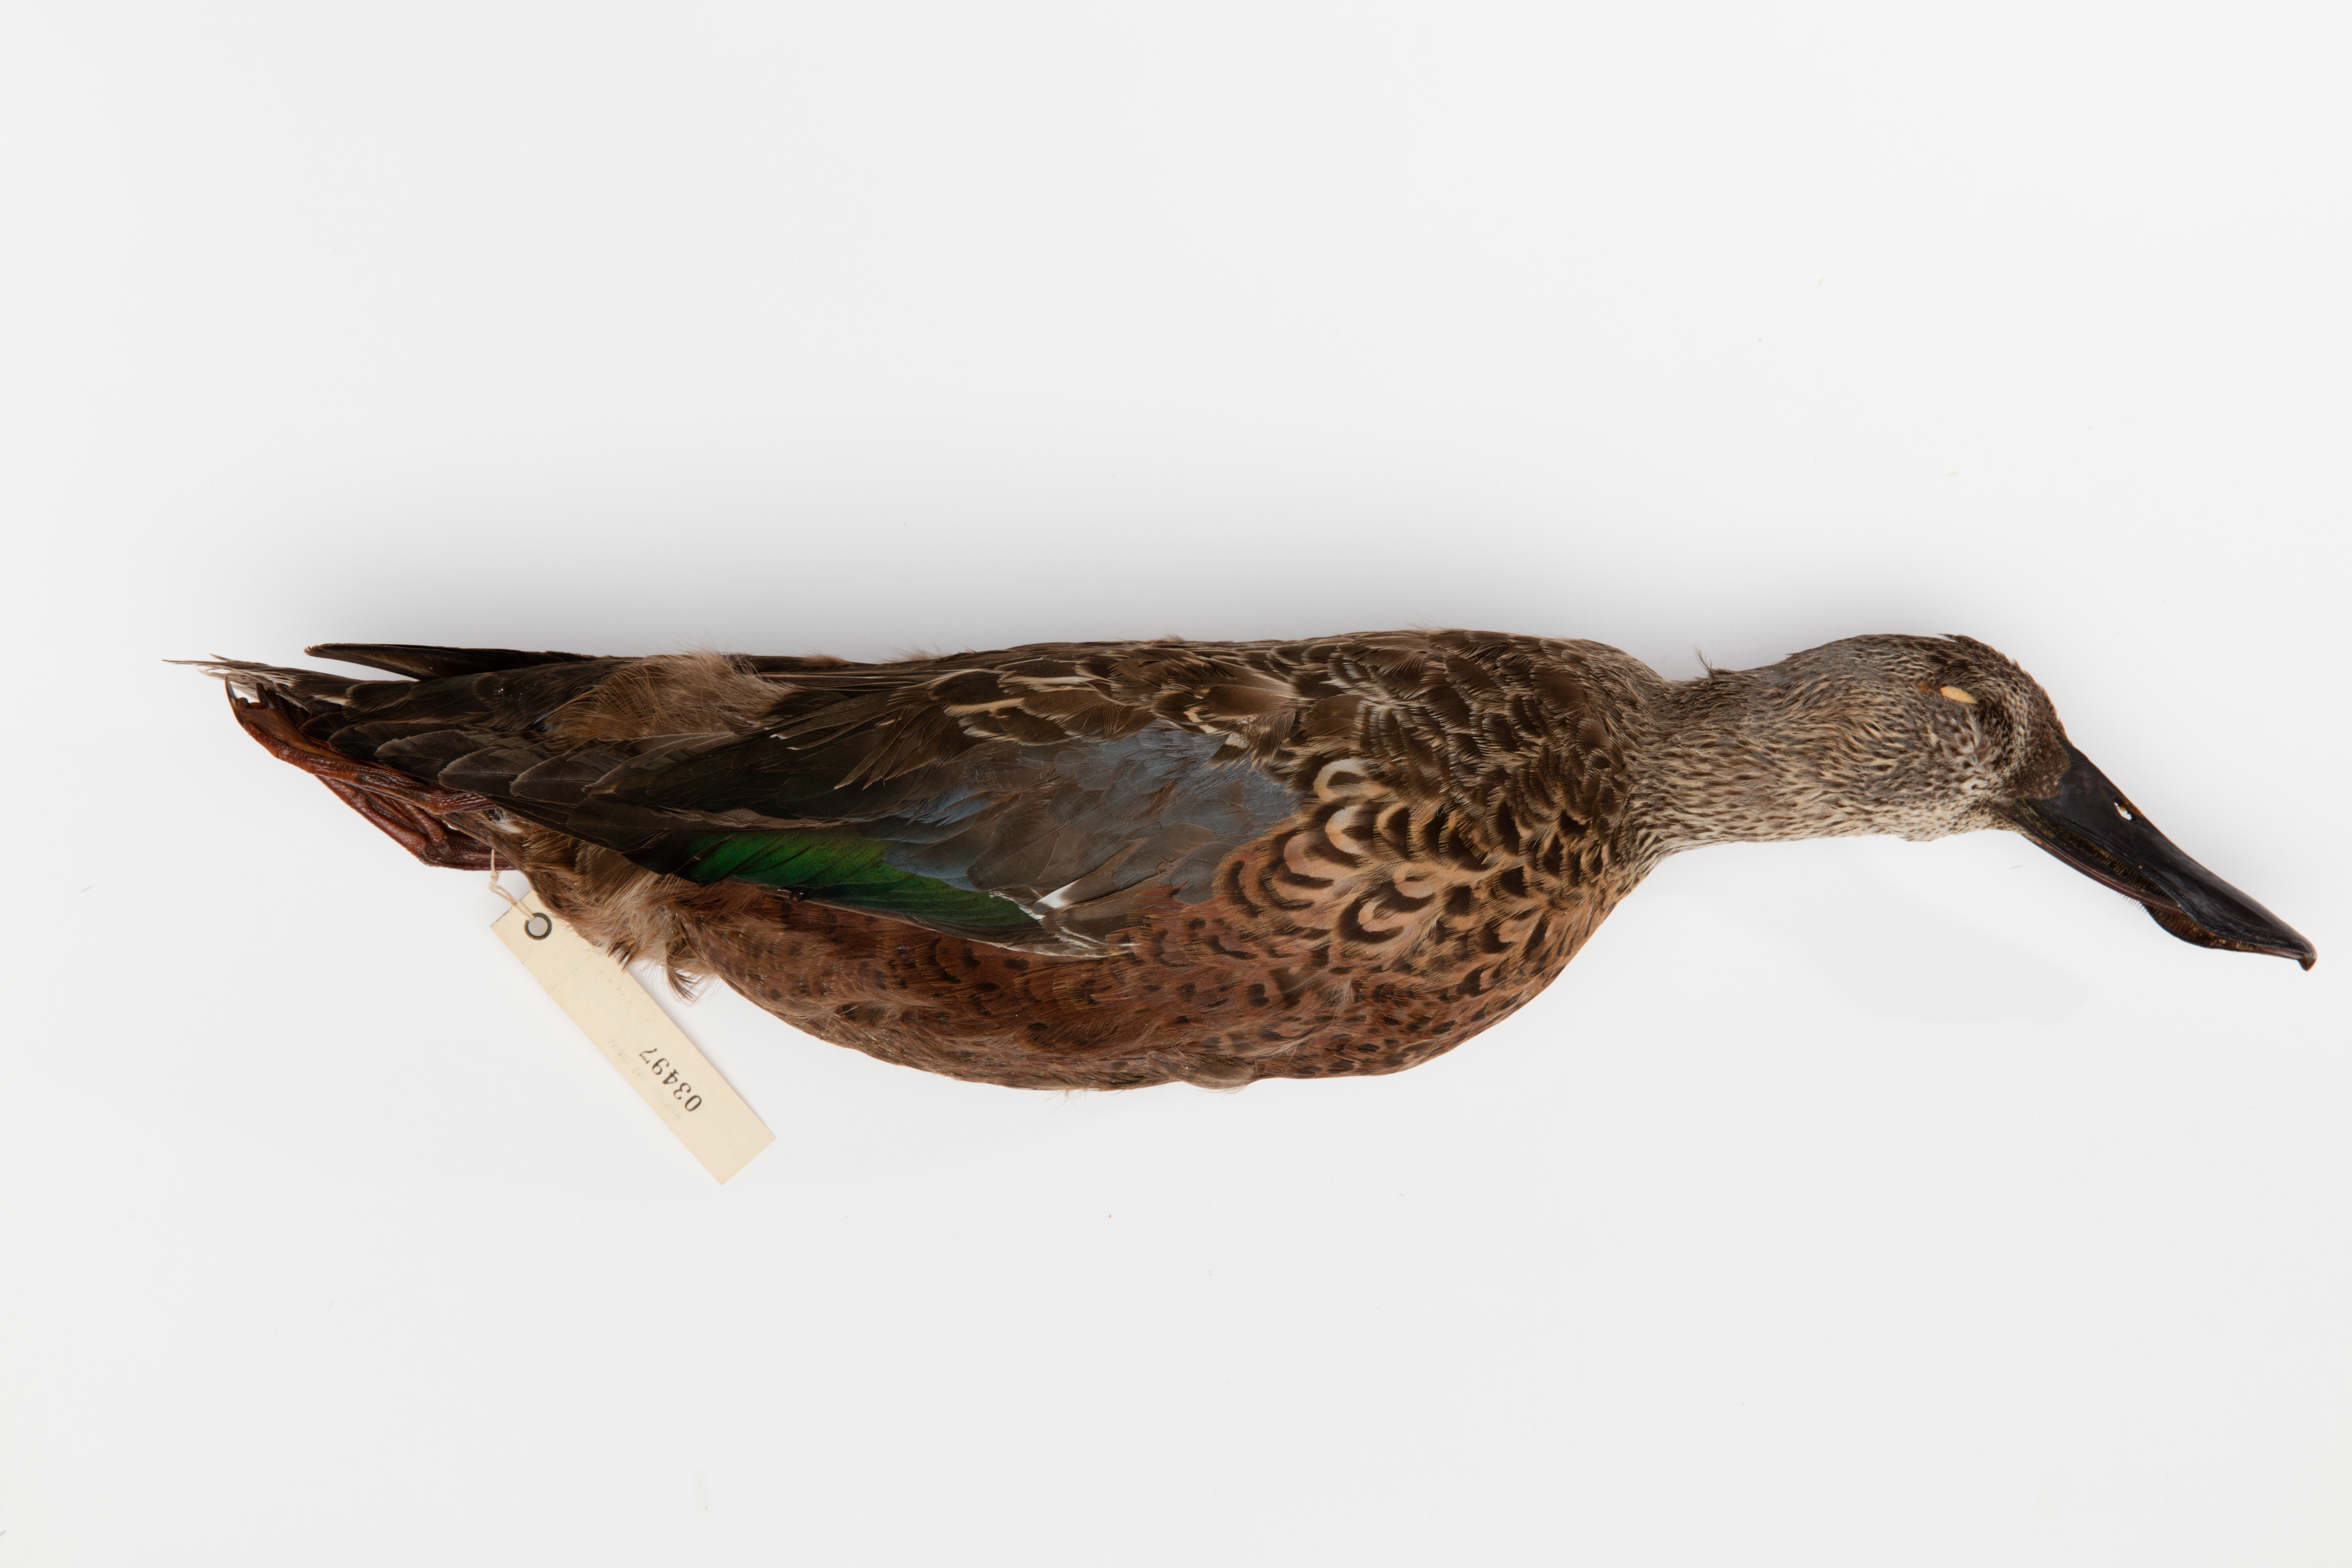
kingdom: Animalia
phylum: Chordata
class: Aves
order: Anseriformes
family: Anatidae
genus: Spatula
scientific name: Spatula rhynchotis
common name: Australian shoveler
